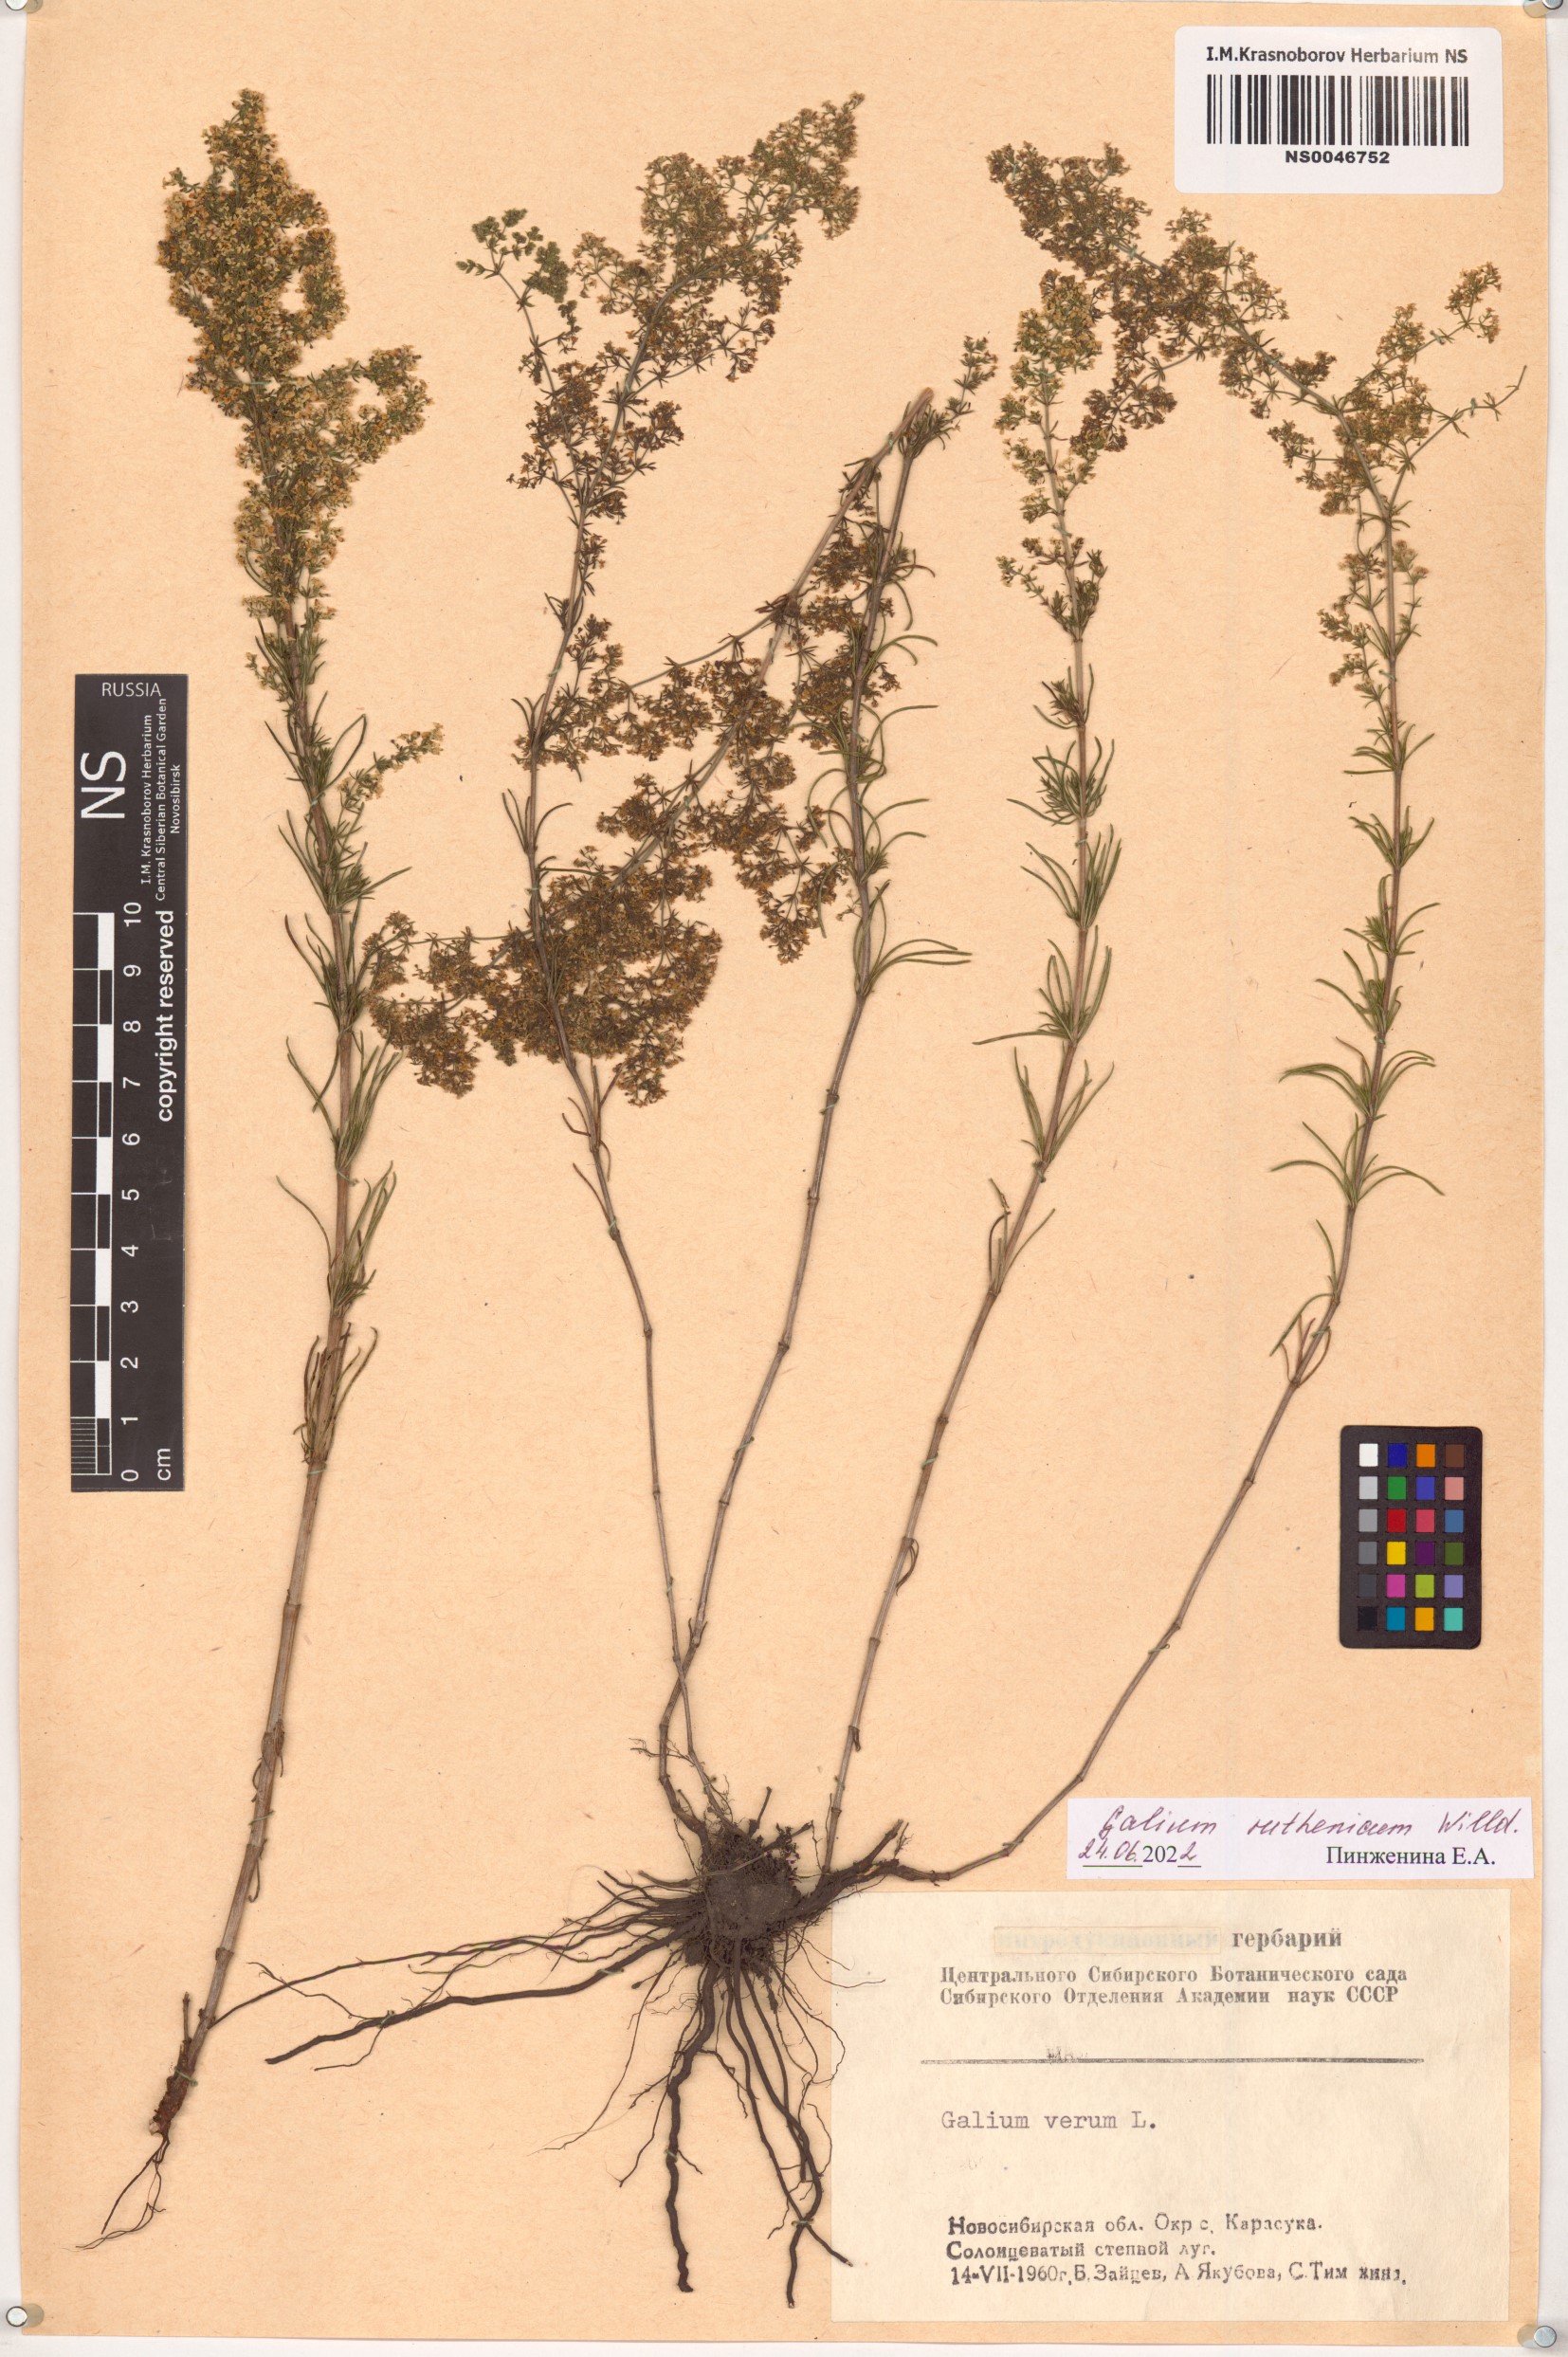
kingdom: Plantae
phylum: Tracheophyta
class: Magnoliopsida
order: Gentianales
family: Rubiaceae
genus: Galium
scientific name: Galium verum
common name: Lady's bedstraw
